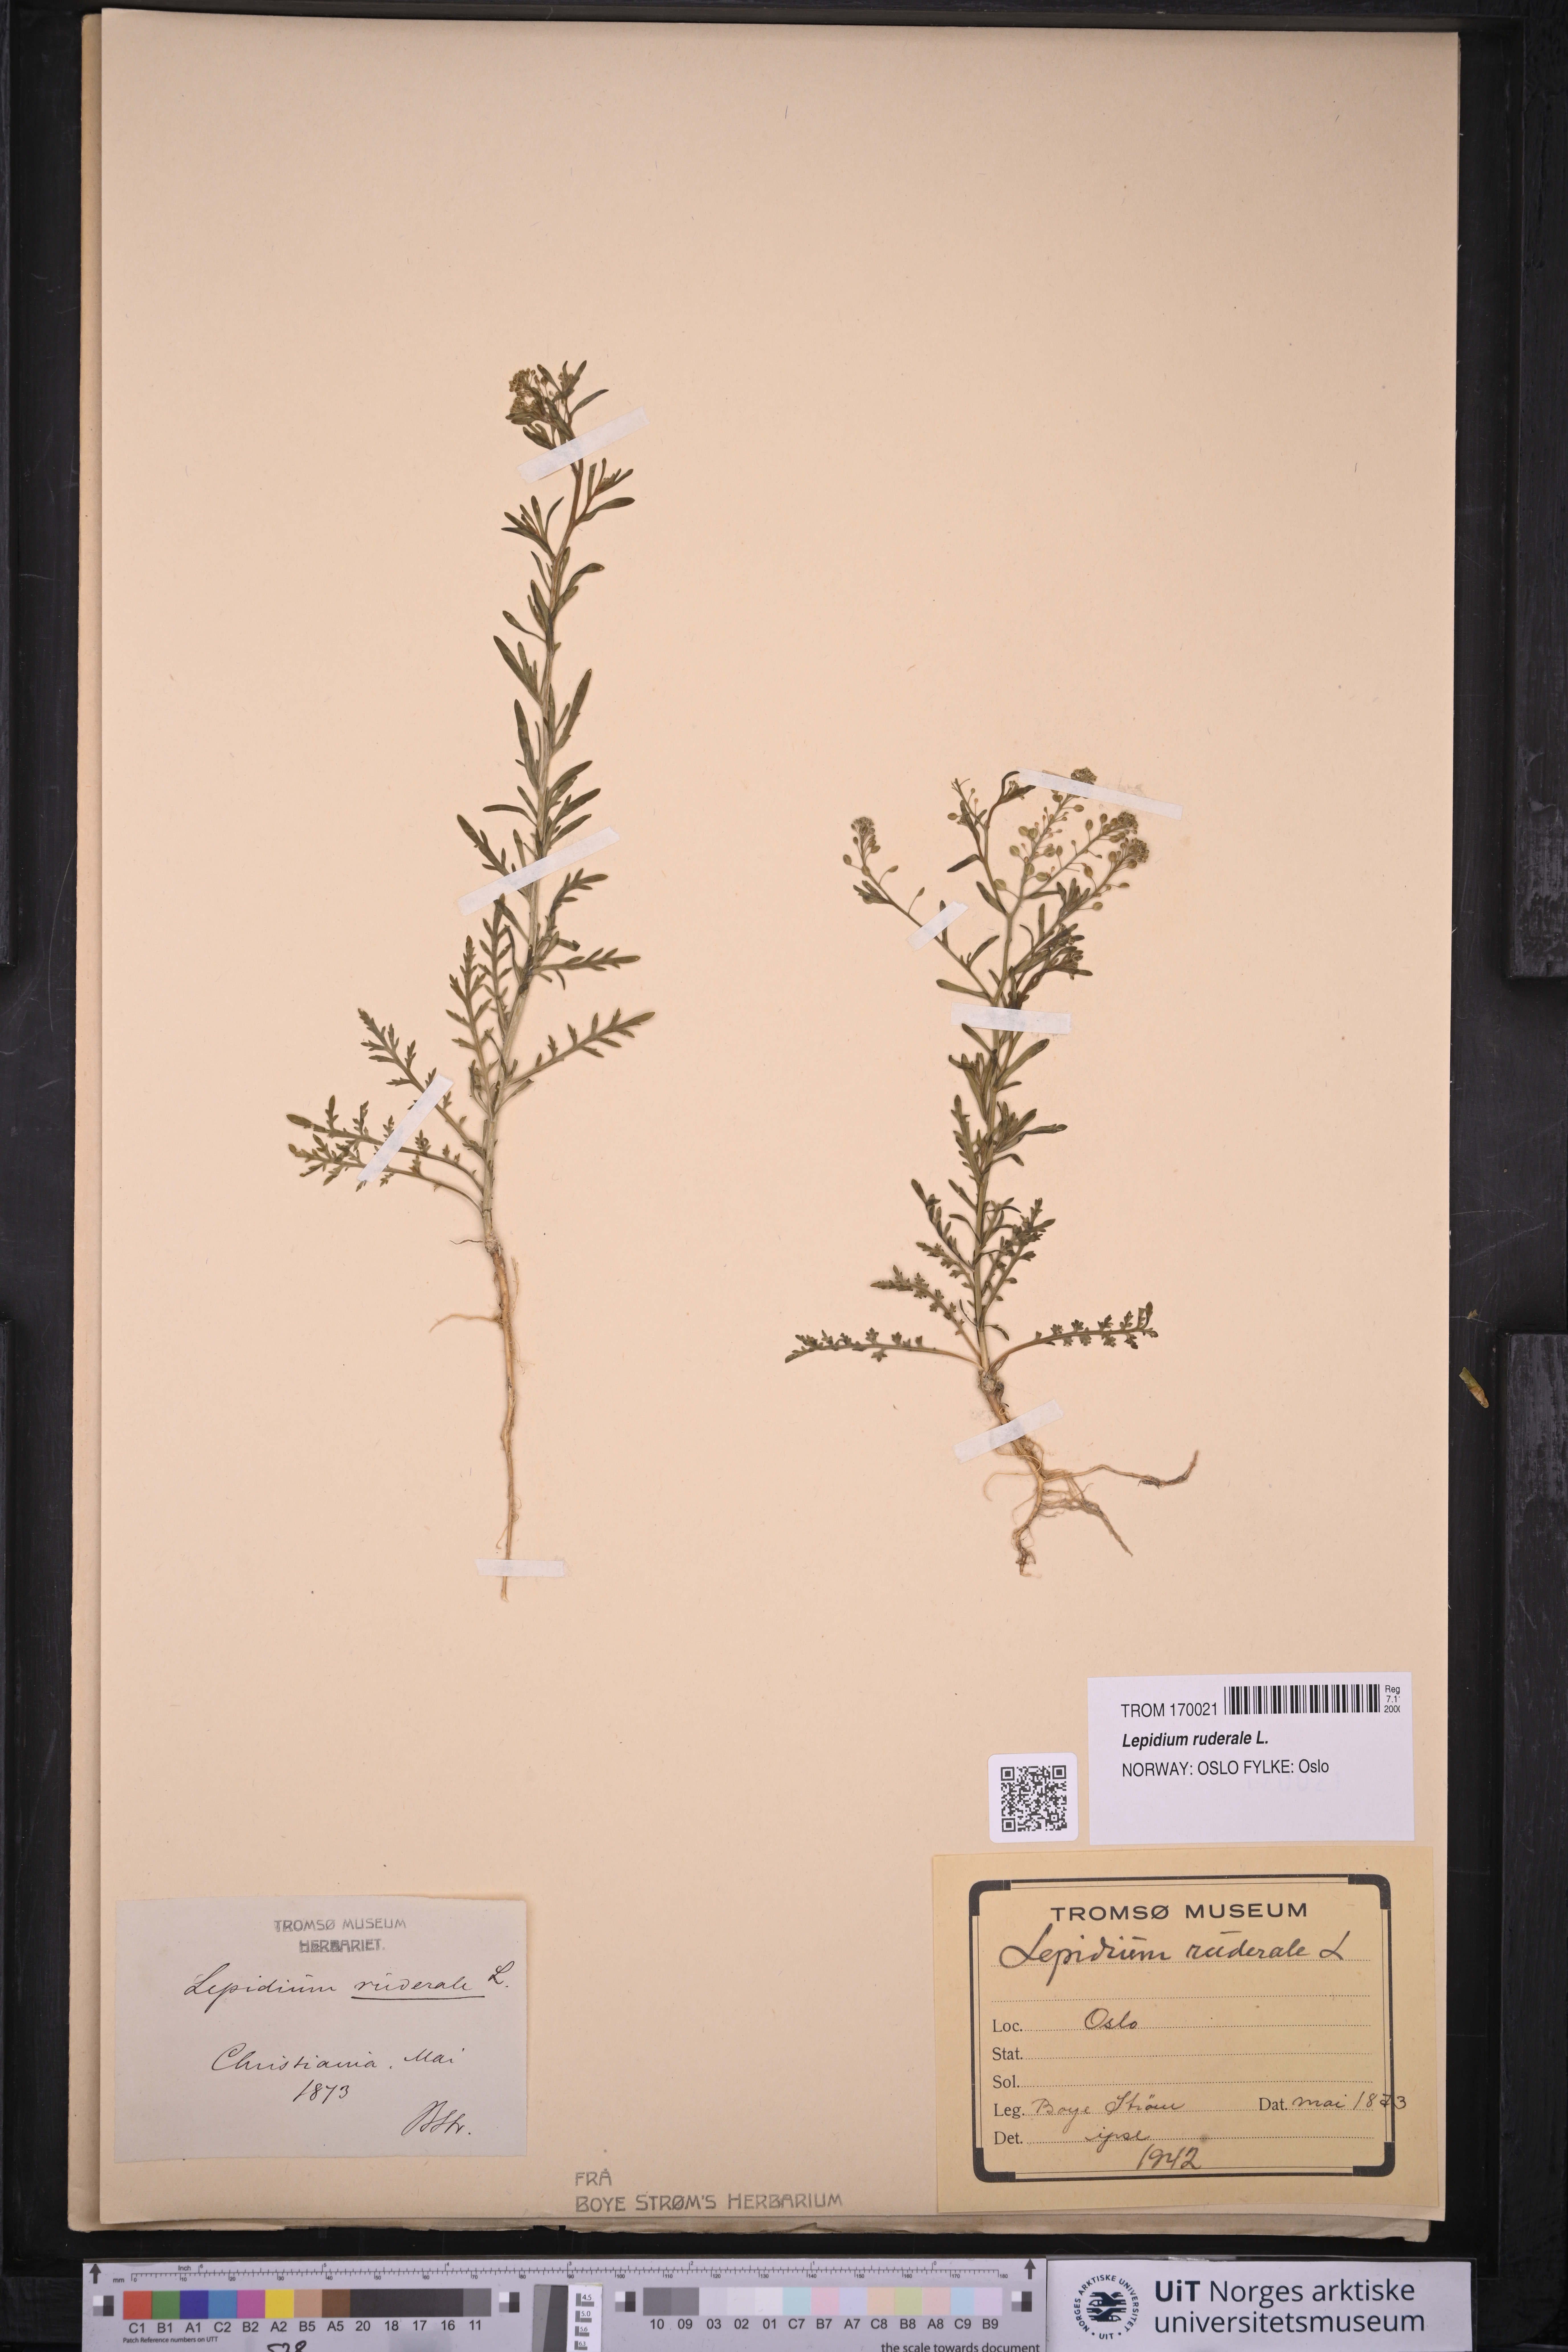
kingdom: Plantae
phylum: Tracheophyta
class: Magnoliopsida
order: Brassicales
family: Brassicaceae
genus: Lepidium
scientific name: Lepidium ruderale
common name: Narrow-leaved pepperwort
